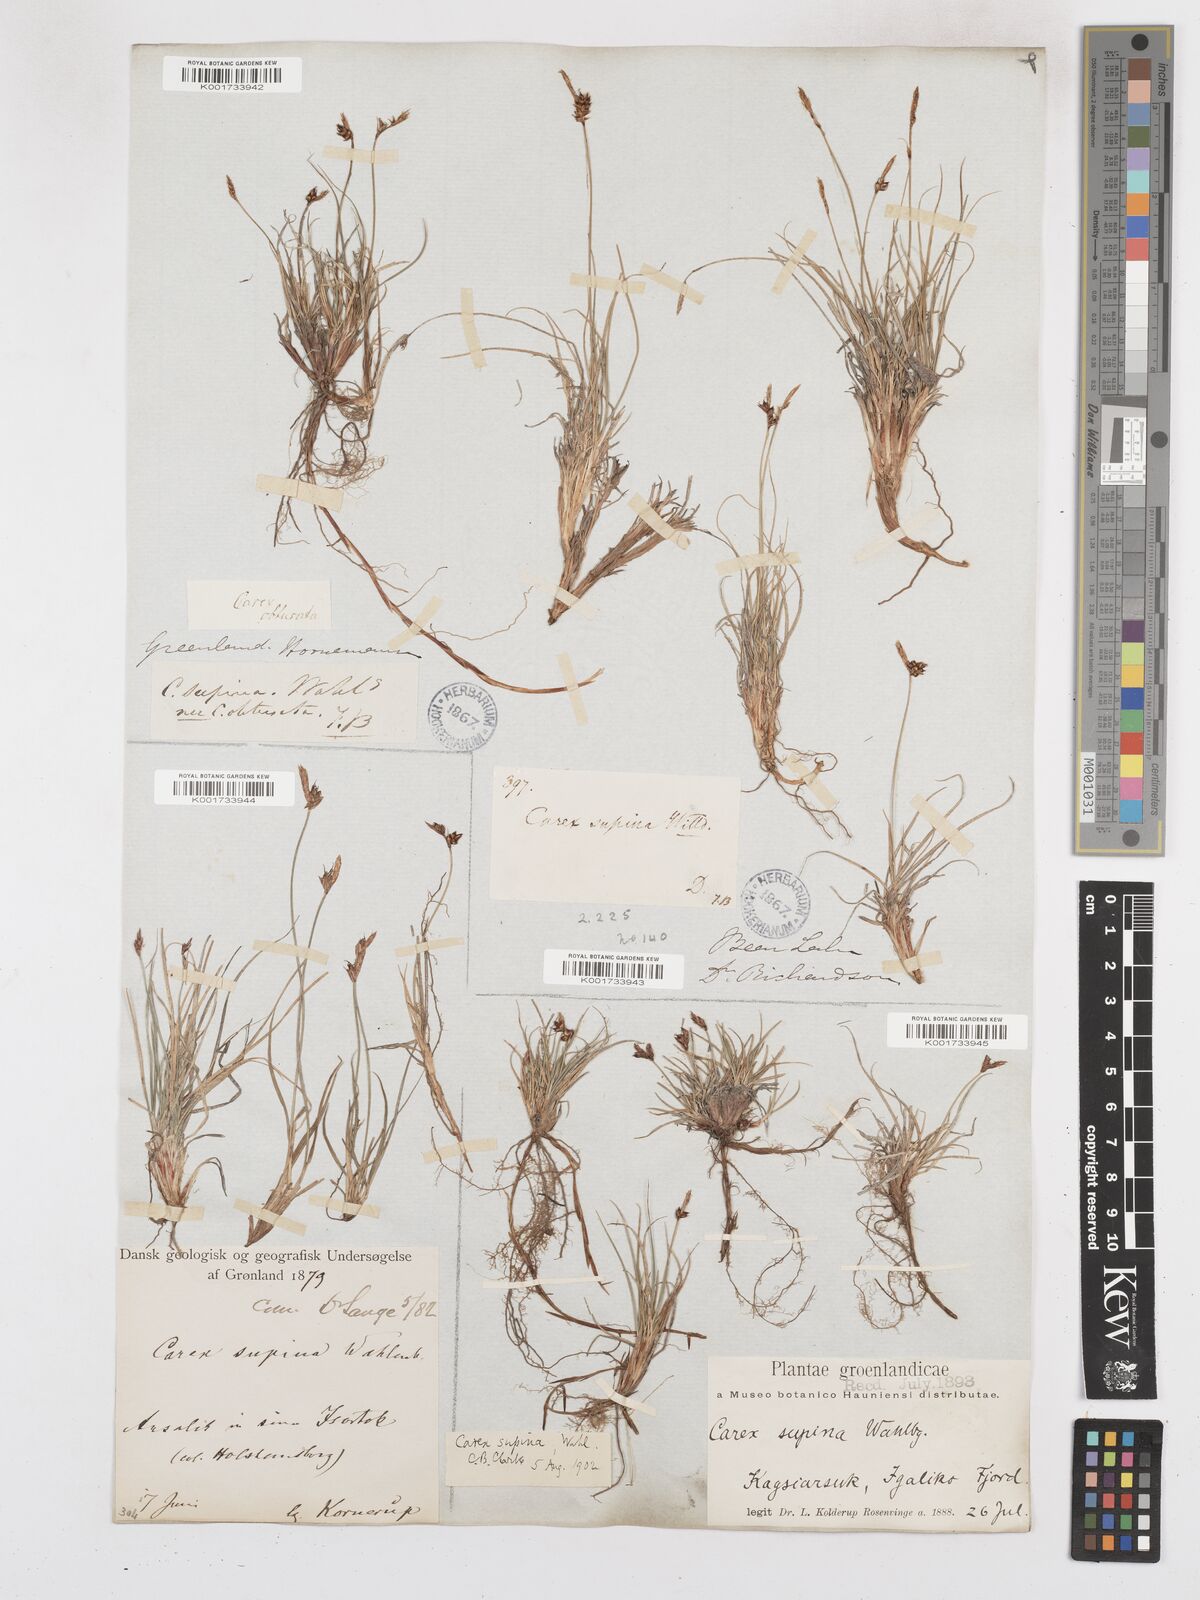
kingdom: Plantae
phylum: Tracheophyta
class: Liliopsida
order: Poales
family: Cyperaceae
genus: Carex
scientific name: Carex supina
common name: Lying-back sedge
